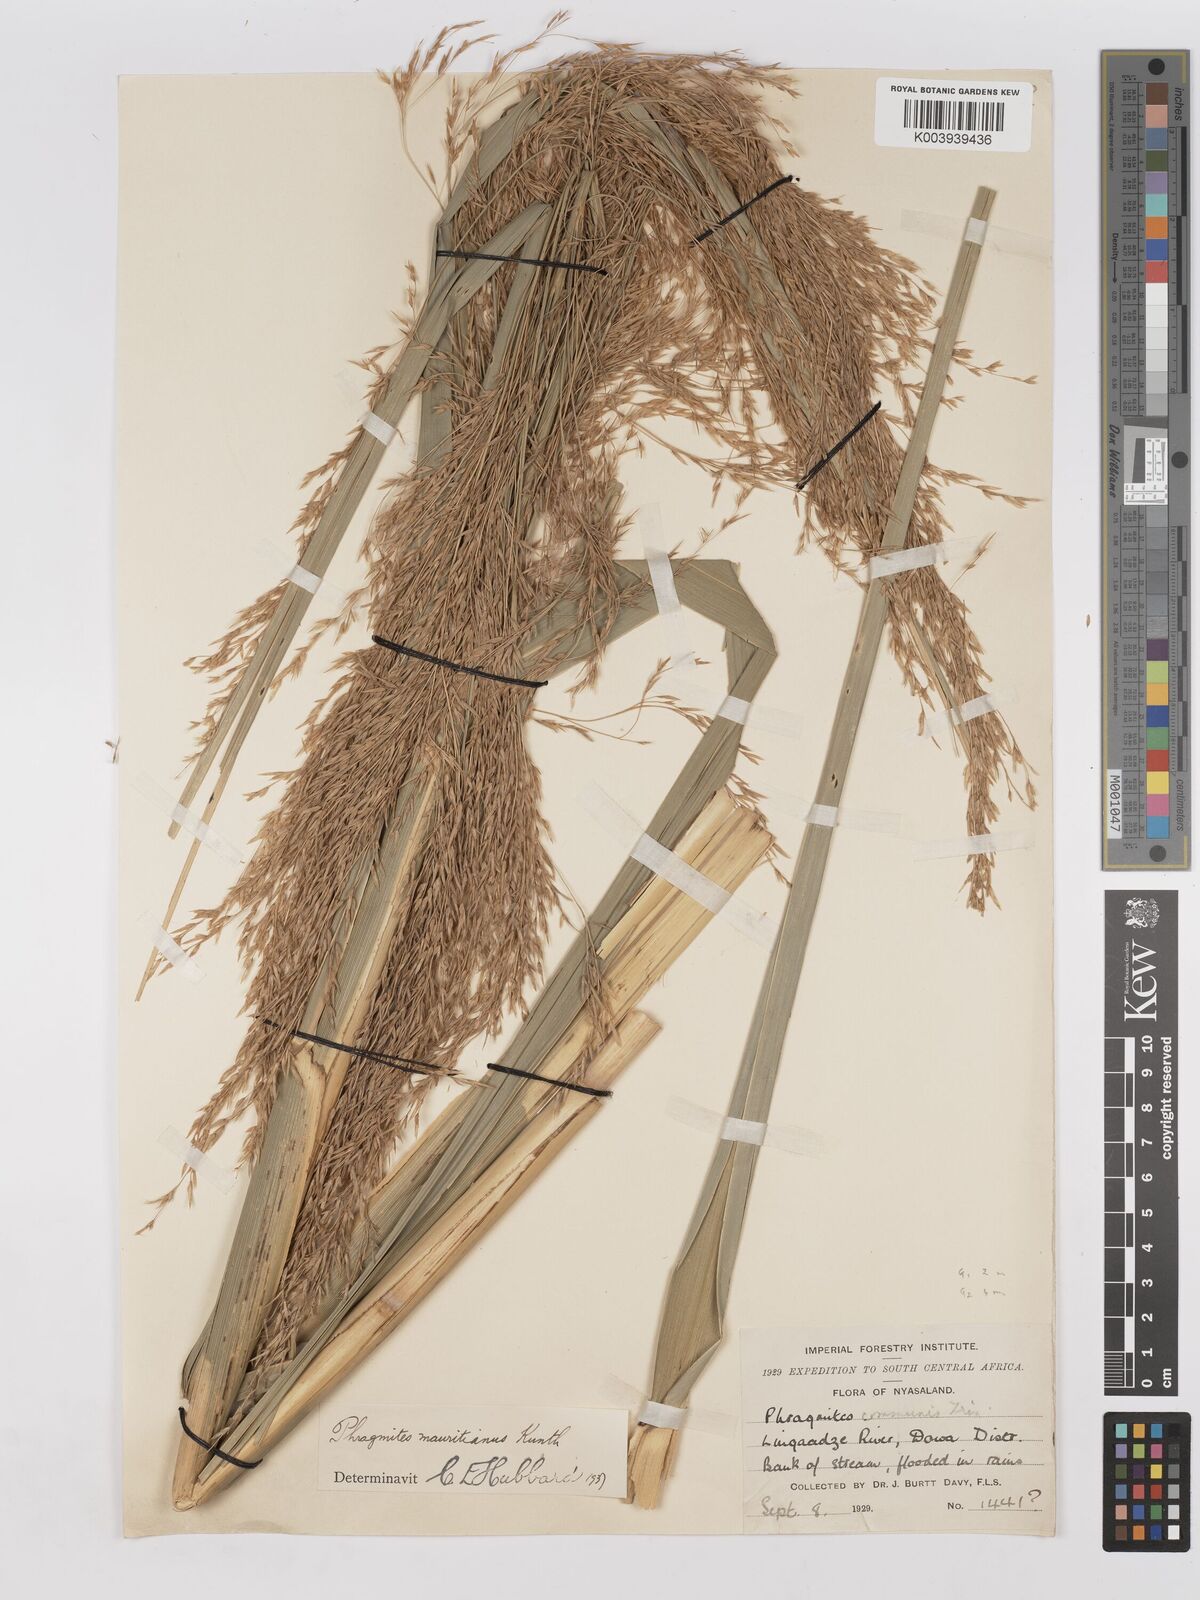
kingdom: Plantae
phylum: Tracheophyta
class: Liliopsida
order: Poales
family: Poaceae
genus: Phragmites
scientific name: Phragmites mauritianus
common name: Reed grass
